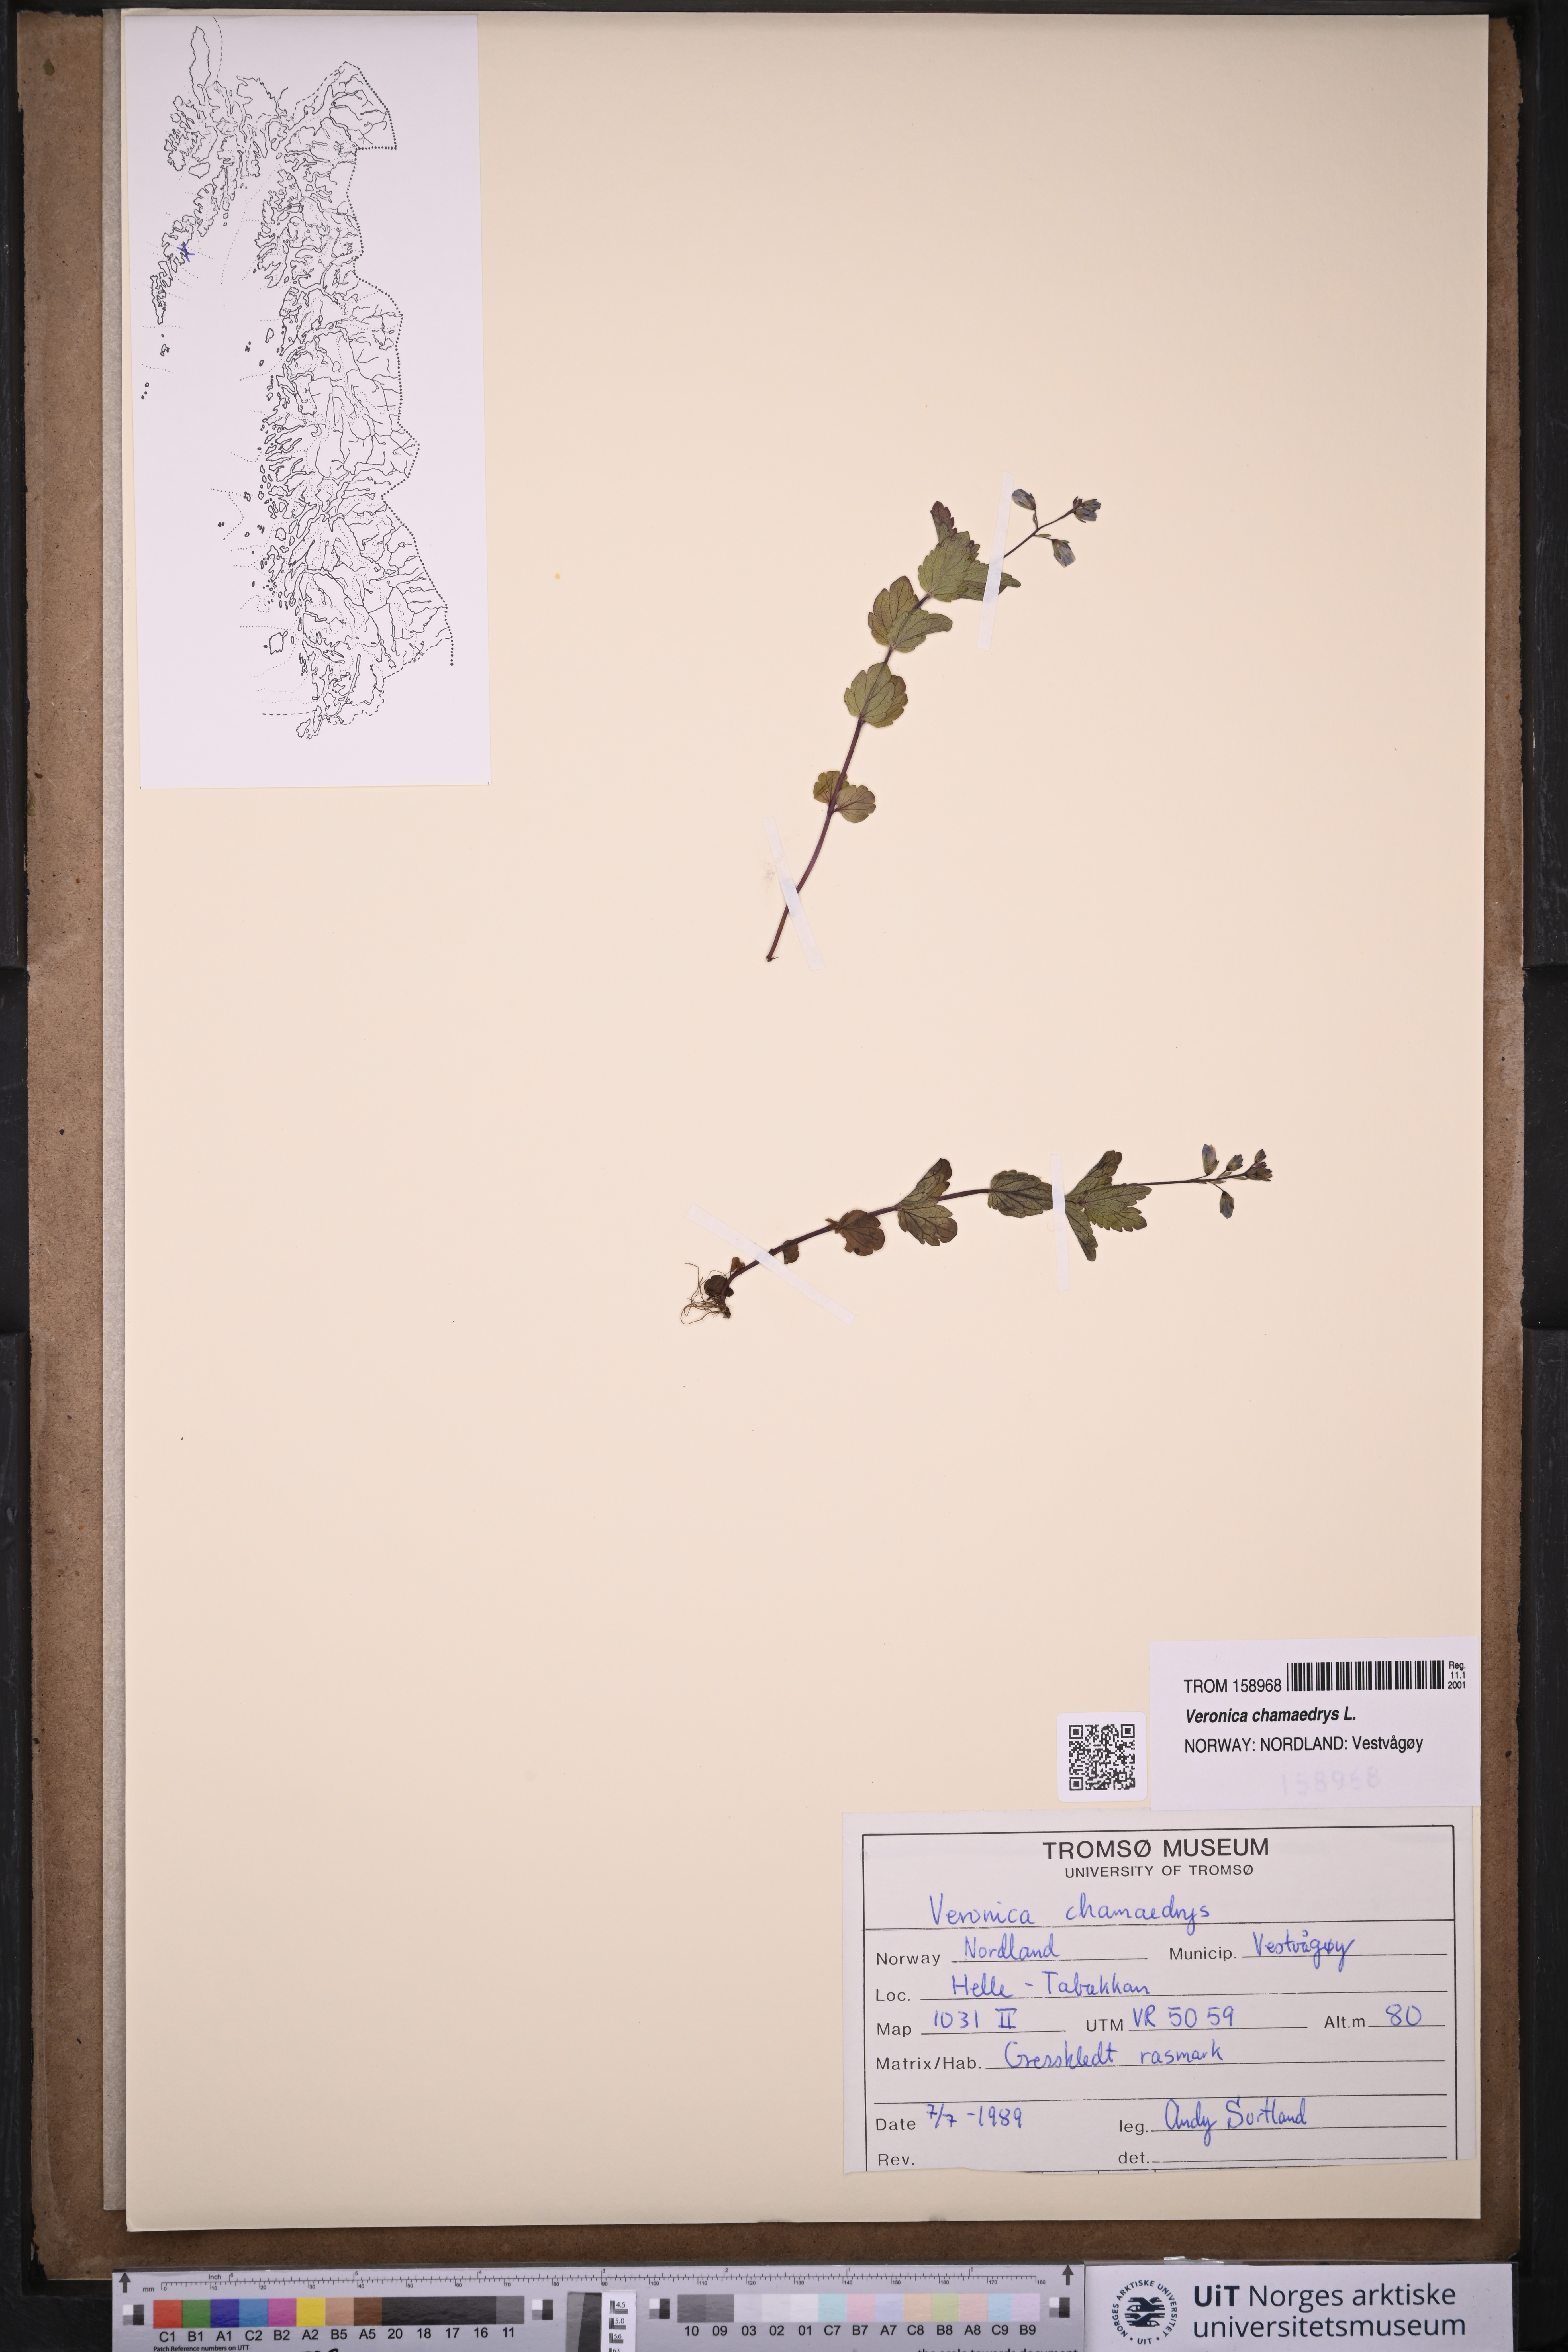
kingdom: Plantae
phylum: Tracheophyta
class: Magnoliopsida
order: Lamiales
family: Plantaginaceae
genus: Veronica
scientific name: Veronica chamaedrys
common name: Germander speedwell
